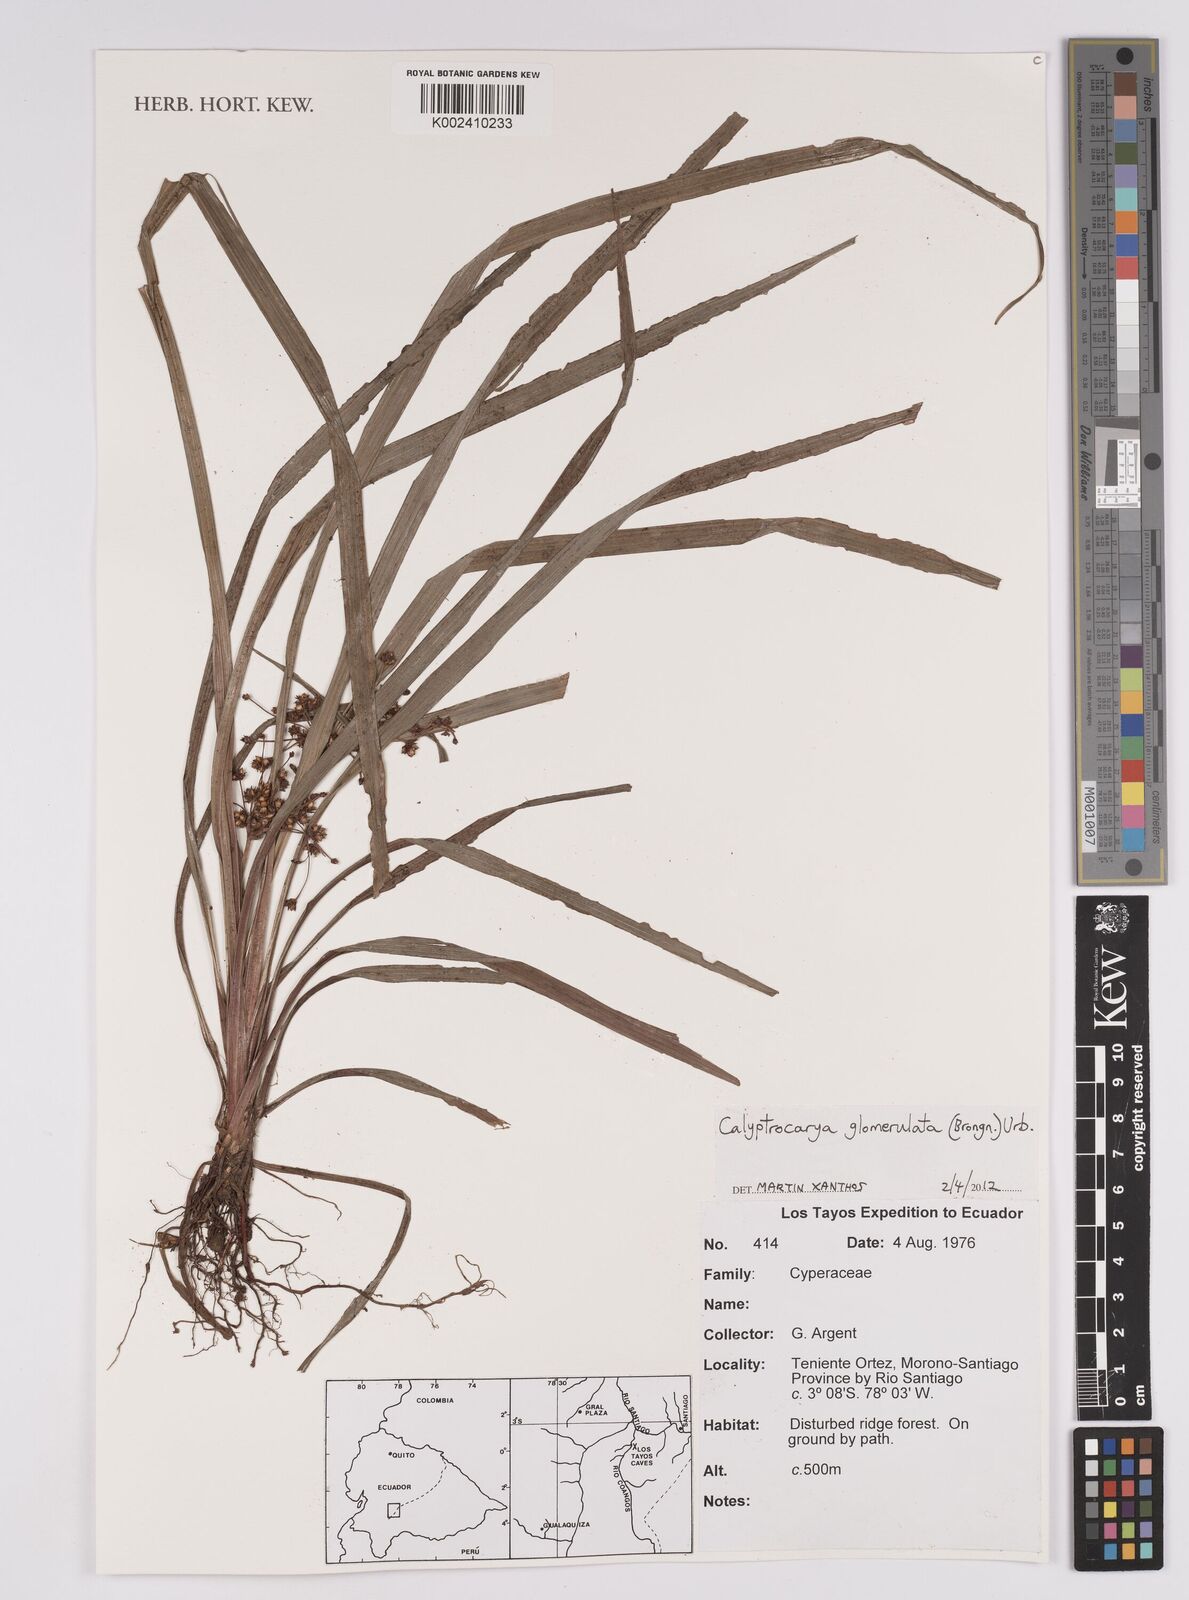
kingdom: Plantae
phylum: Tracheophyta
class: Liliopsida
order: Poales
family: Cyperaceae
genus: Calyptrocarya
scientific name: Calyptrocarya glomerulata
